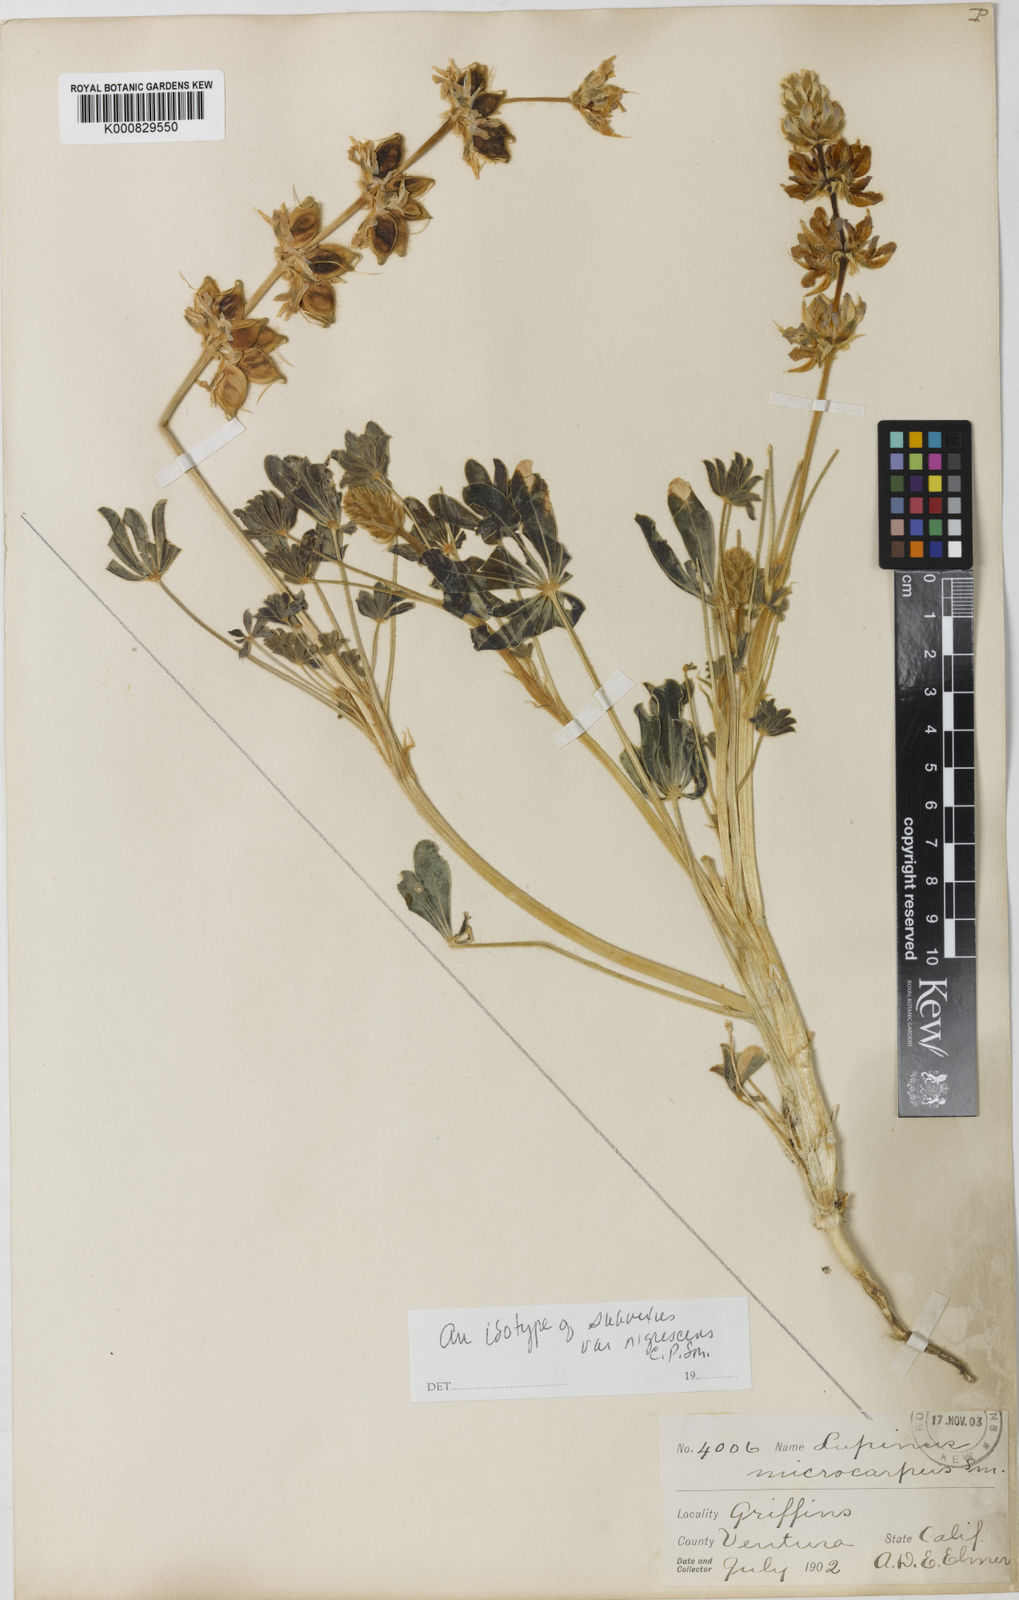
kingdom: Plantae
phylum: Tracheophyta
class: Magnoliopsida
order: Fabales
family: Fabaceae
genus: Lupinus
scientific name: Lupinus subvexus
